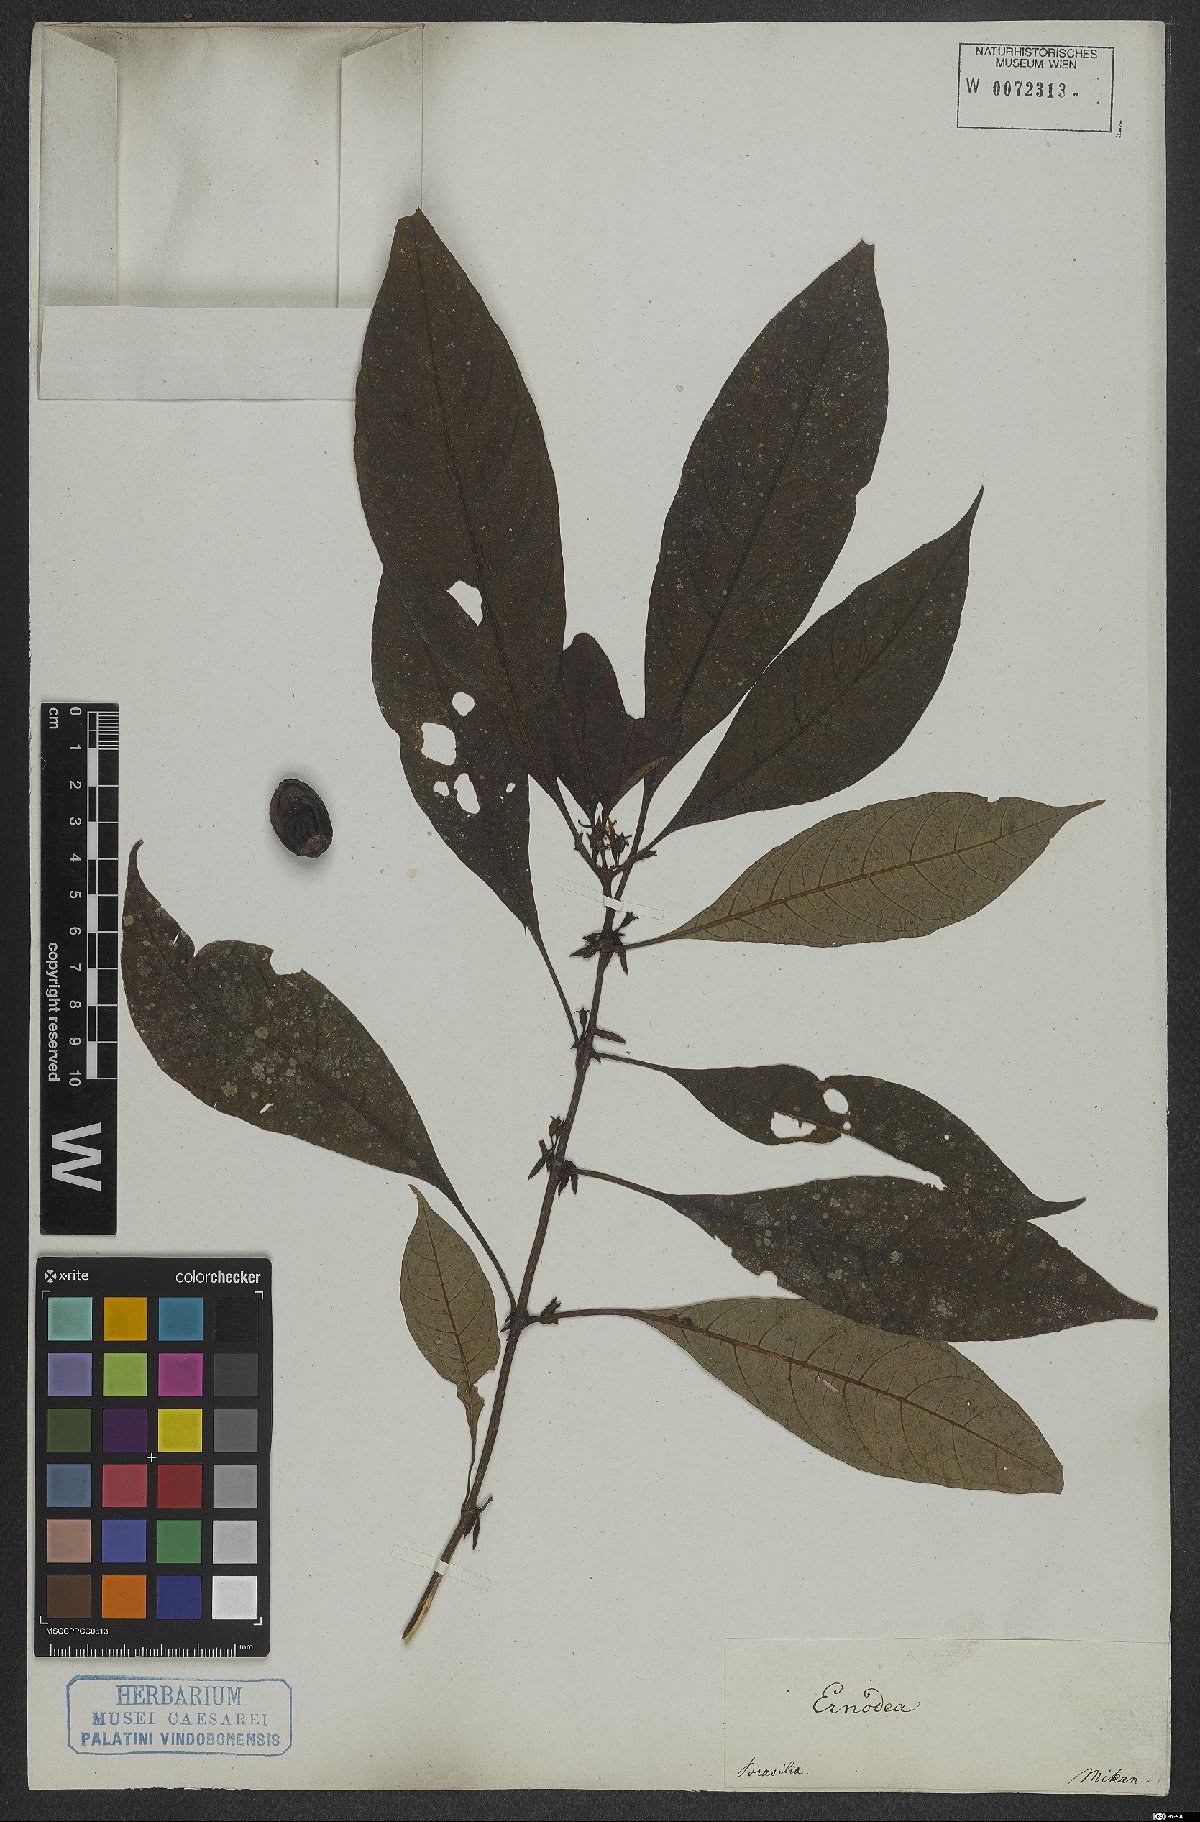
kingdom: Plantae
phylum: Tracheophyta
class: Magnoliopsida
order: Gentianales
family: Rubiaceae
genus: Hoffmannia
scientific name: Hoffmannia peckii
